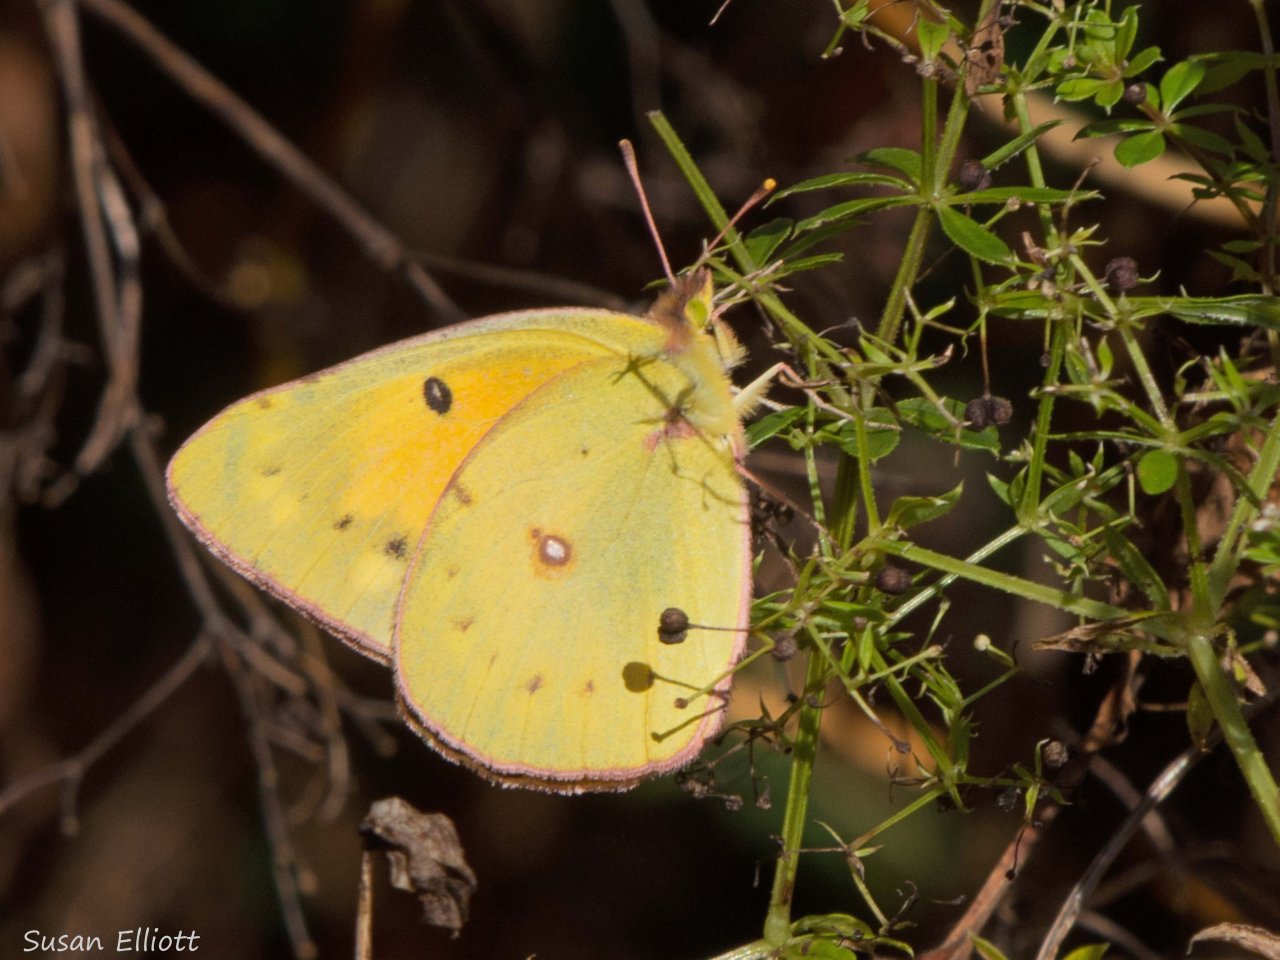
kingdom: Animalia
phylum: Arthropoda
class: Insecta
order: Lepidoptera
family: Pieridae
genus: Colias
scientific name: Colias eurytheme
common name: Orange Sulphur
